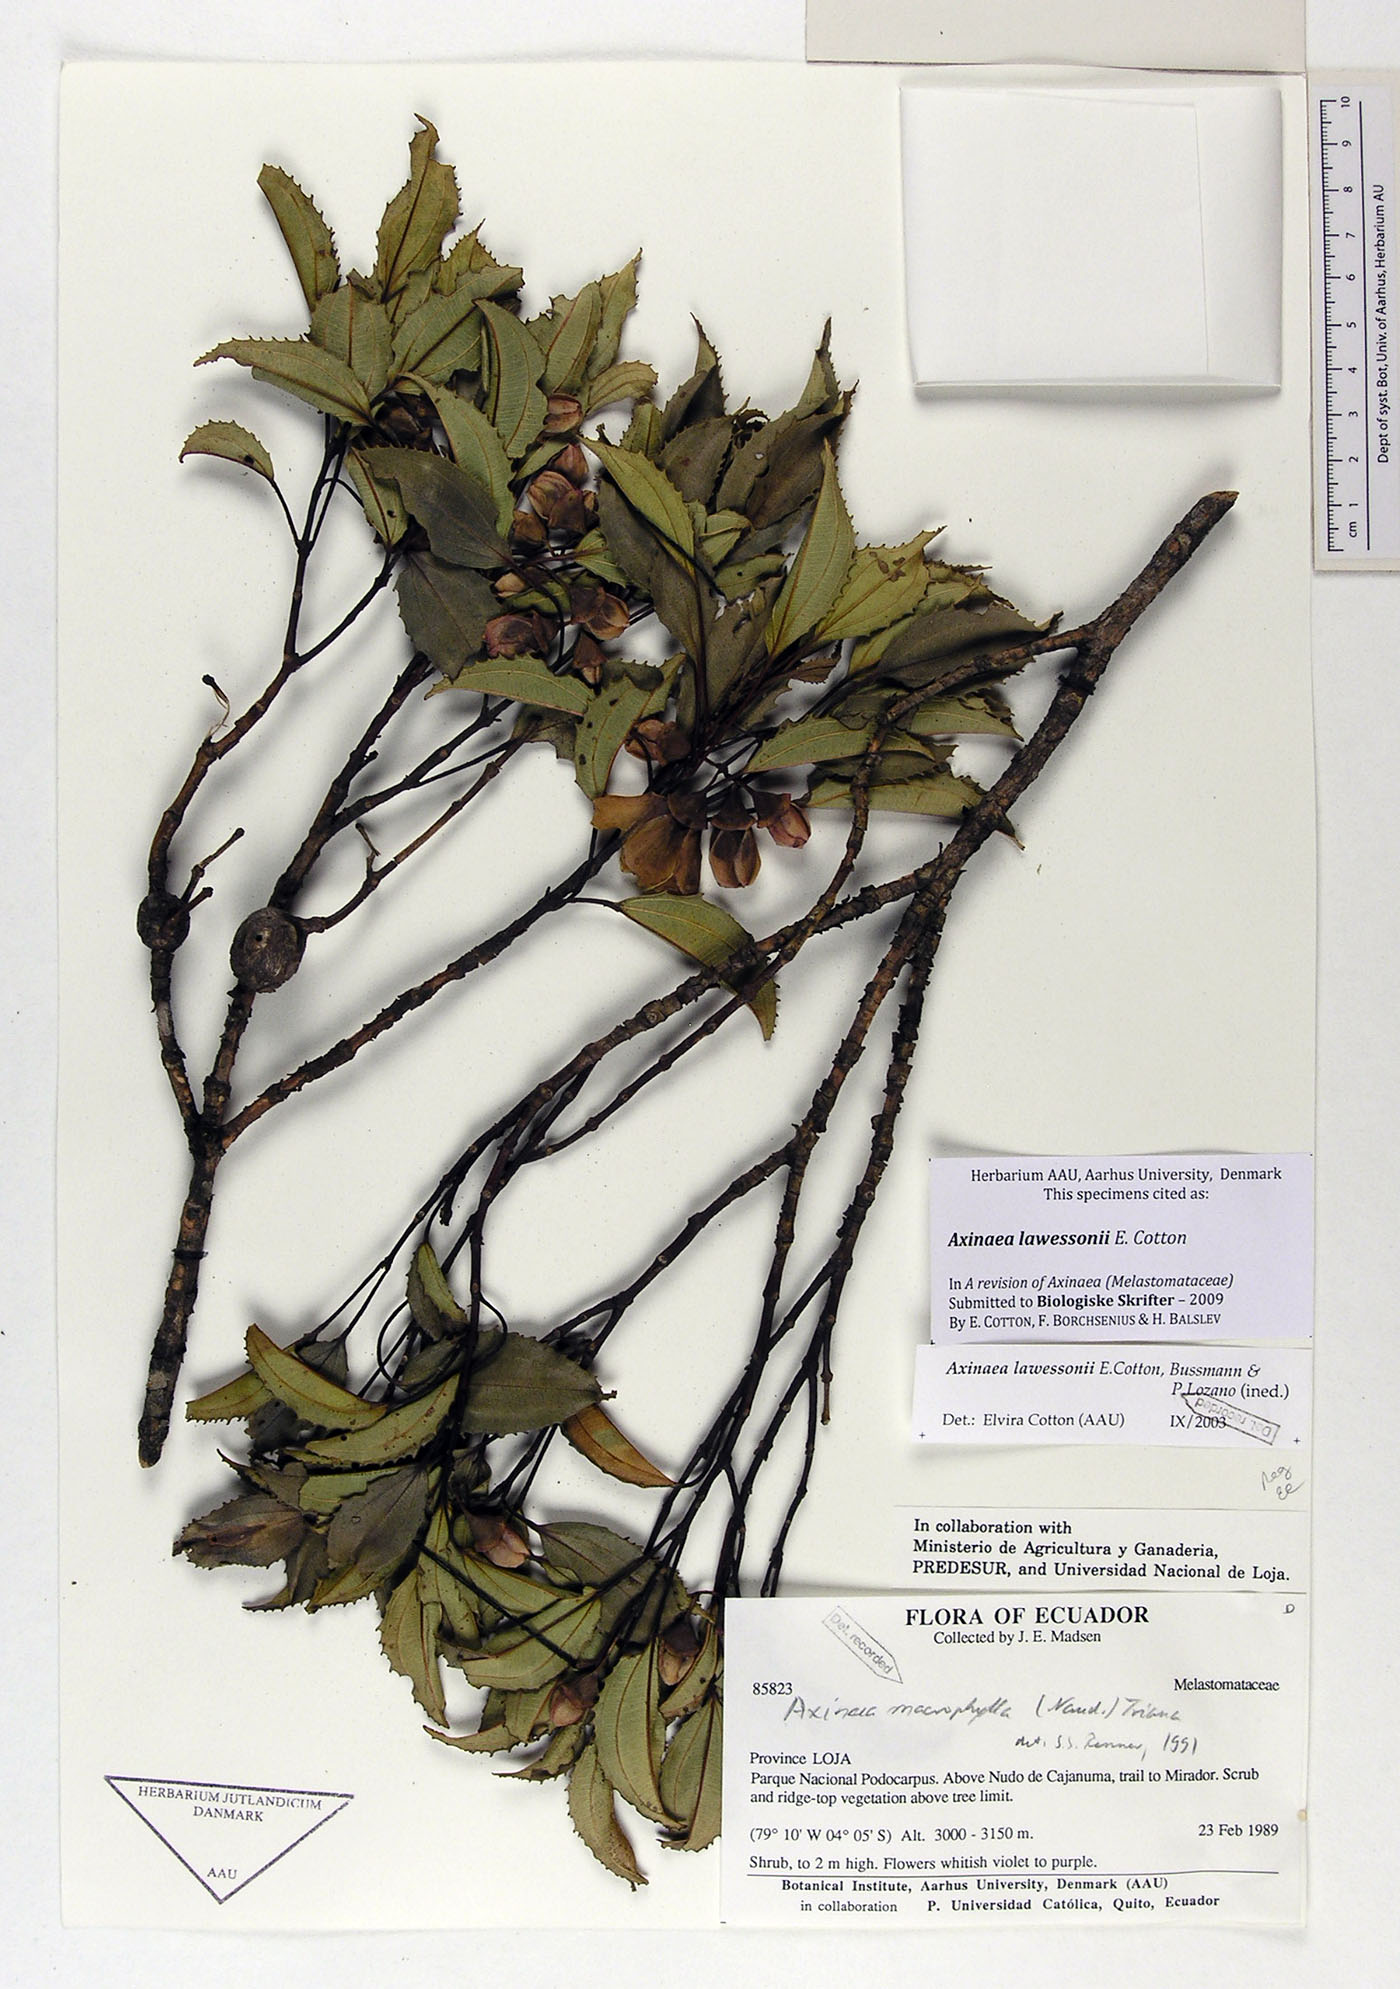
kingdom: Plantae
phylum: Tracheophyta
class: Magnoliopsida
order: Myrtales
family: Melastomataceae
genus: Axinaea
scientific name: Axinaea lawessonii
